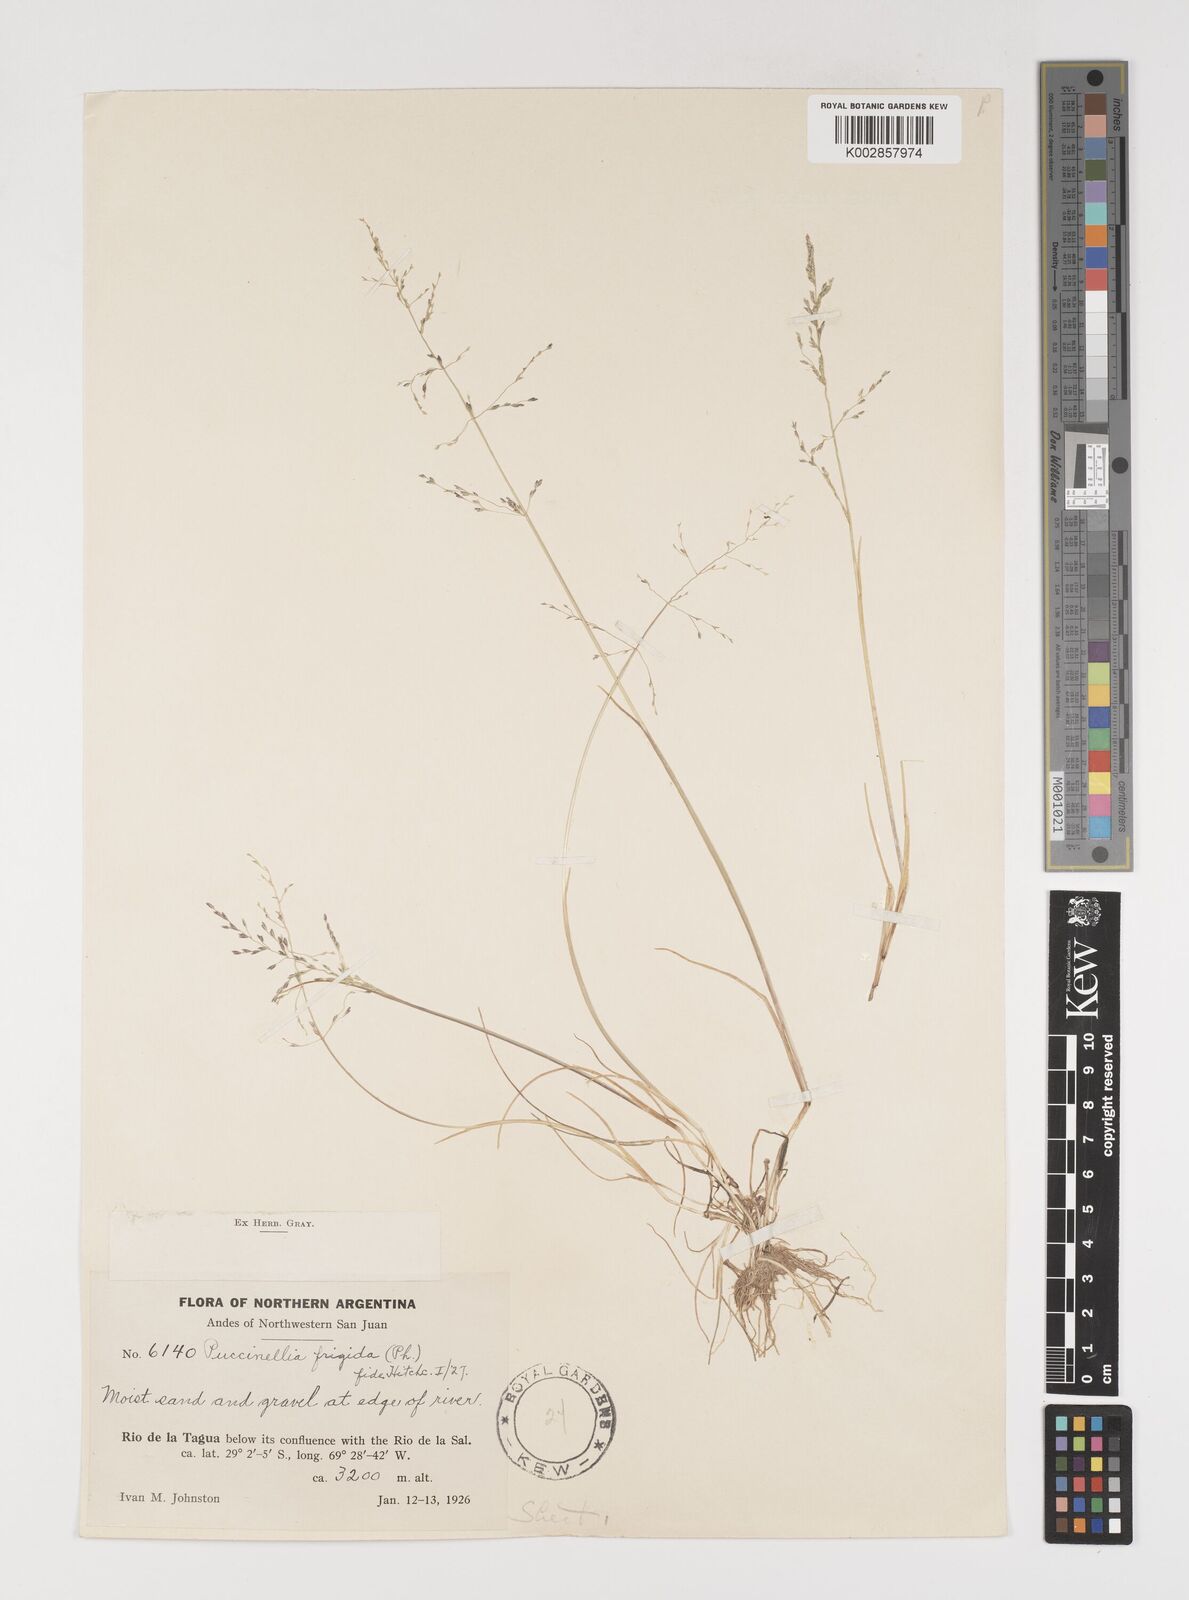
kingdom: Plantae
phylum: Tracheophyta
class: Liliopsida
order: Poales
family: Poaceae
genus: Puccinellia
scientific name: Puccinellia frigida
